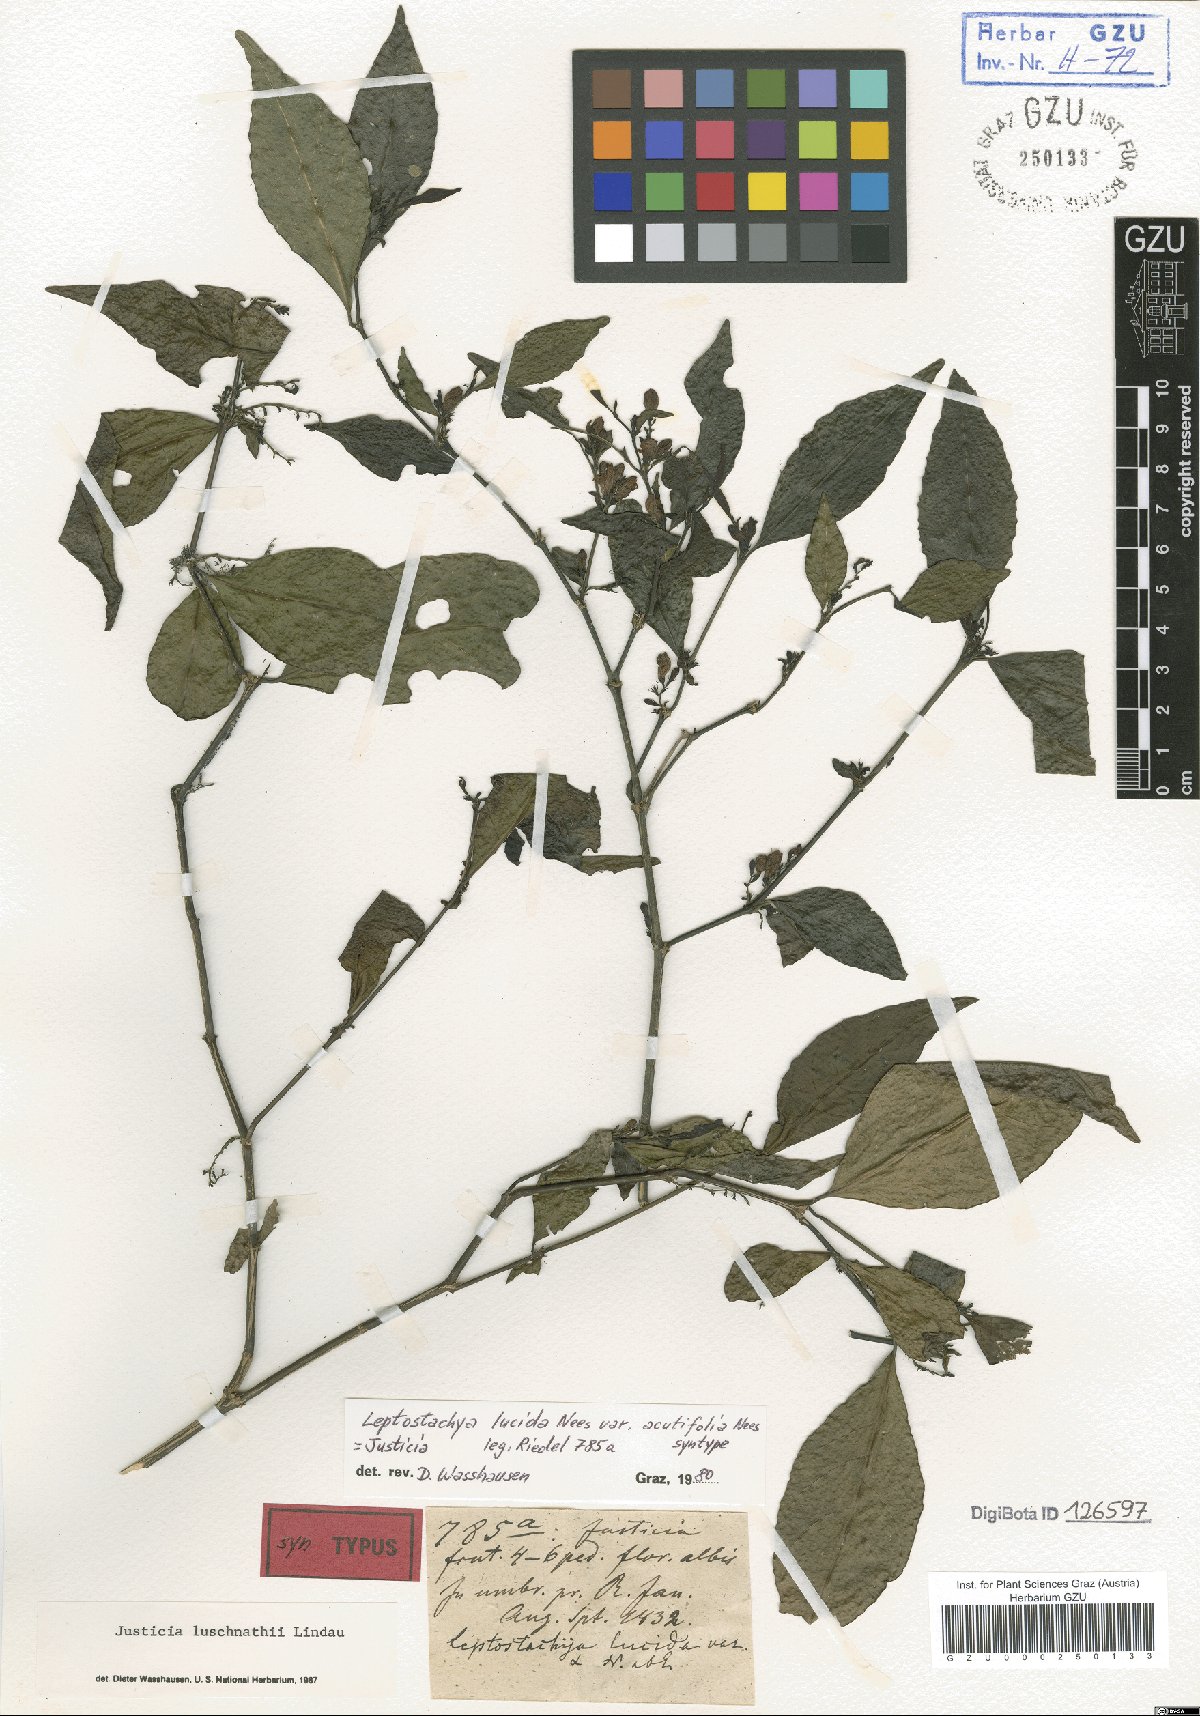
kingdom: Plantae
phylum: Tracheophyta
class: Magnoliopsida
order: Lamiales
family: Acanthaceae
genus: Justicia
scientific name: Justicia luschnathii
